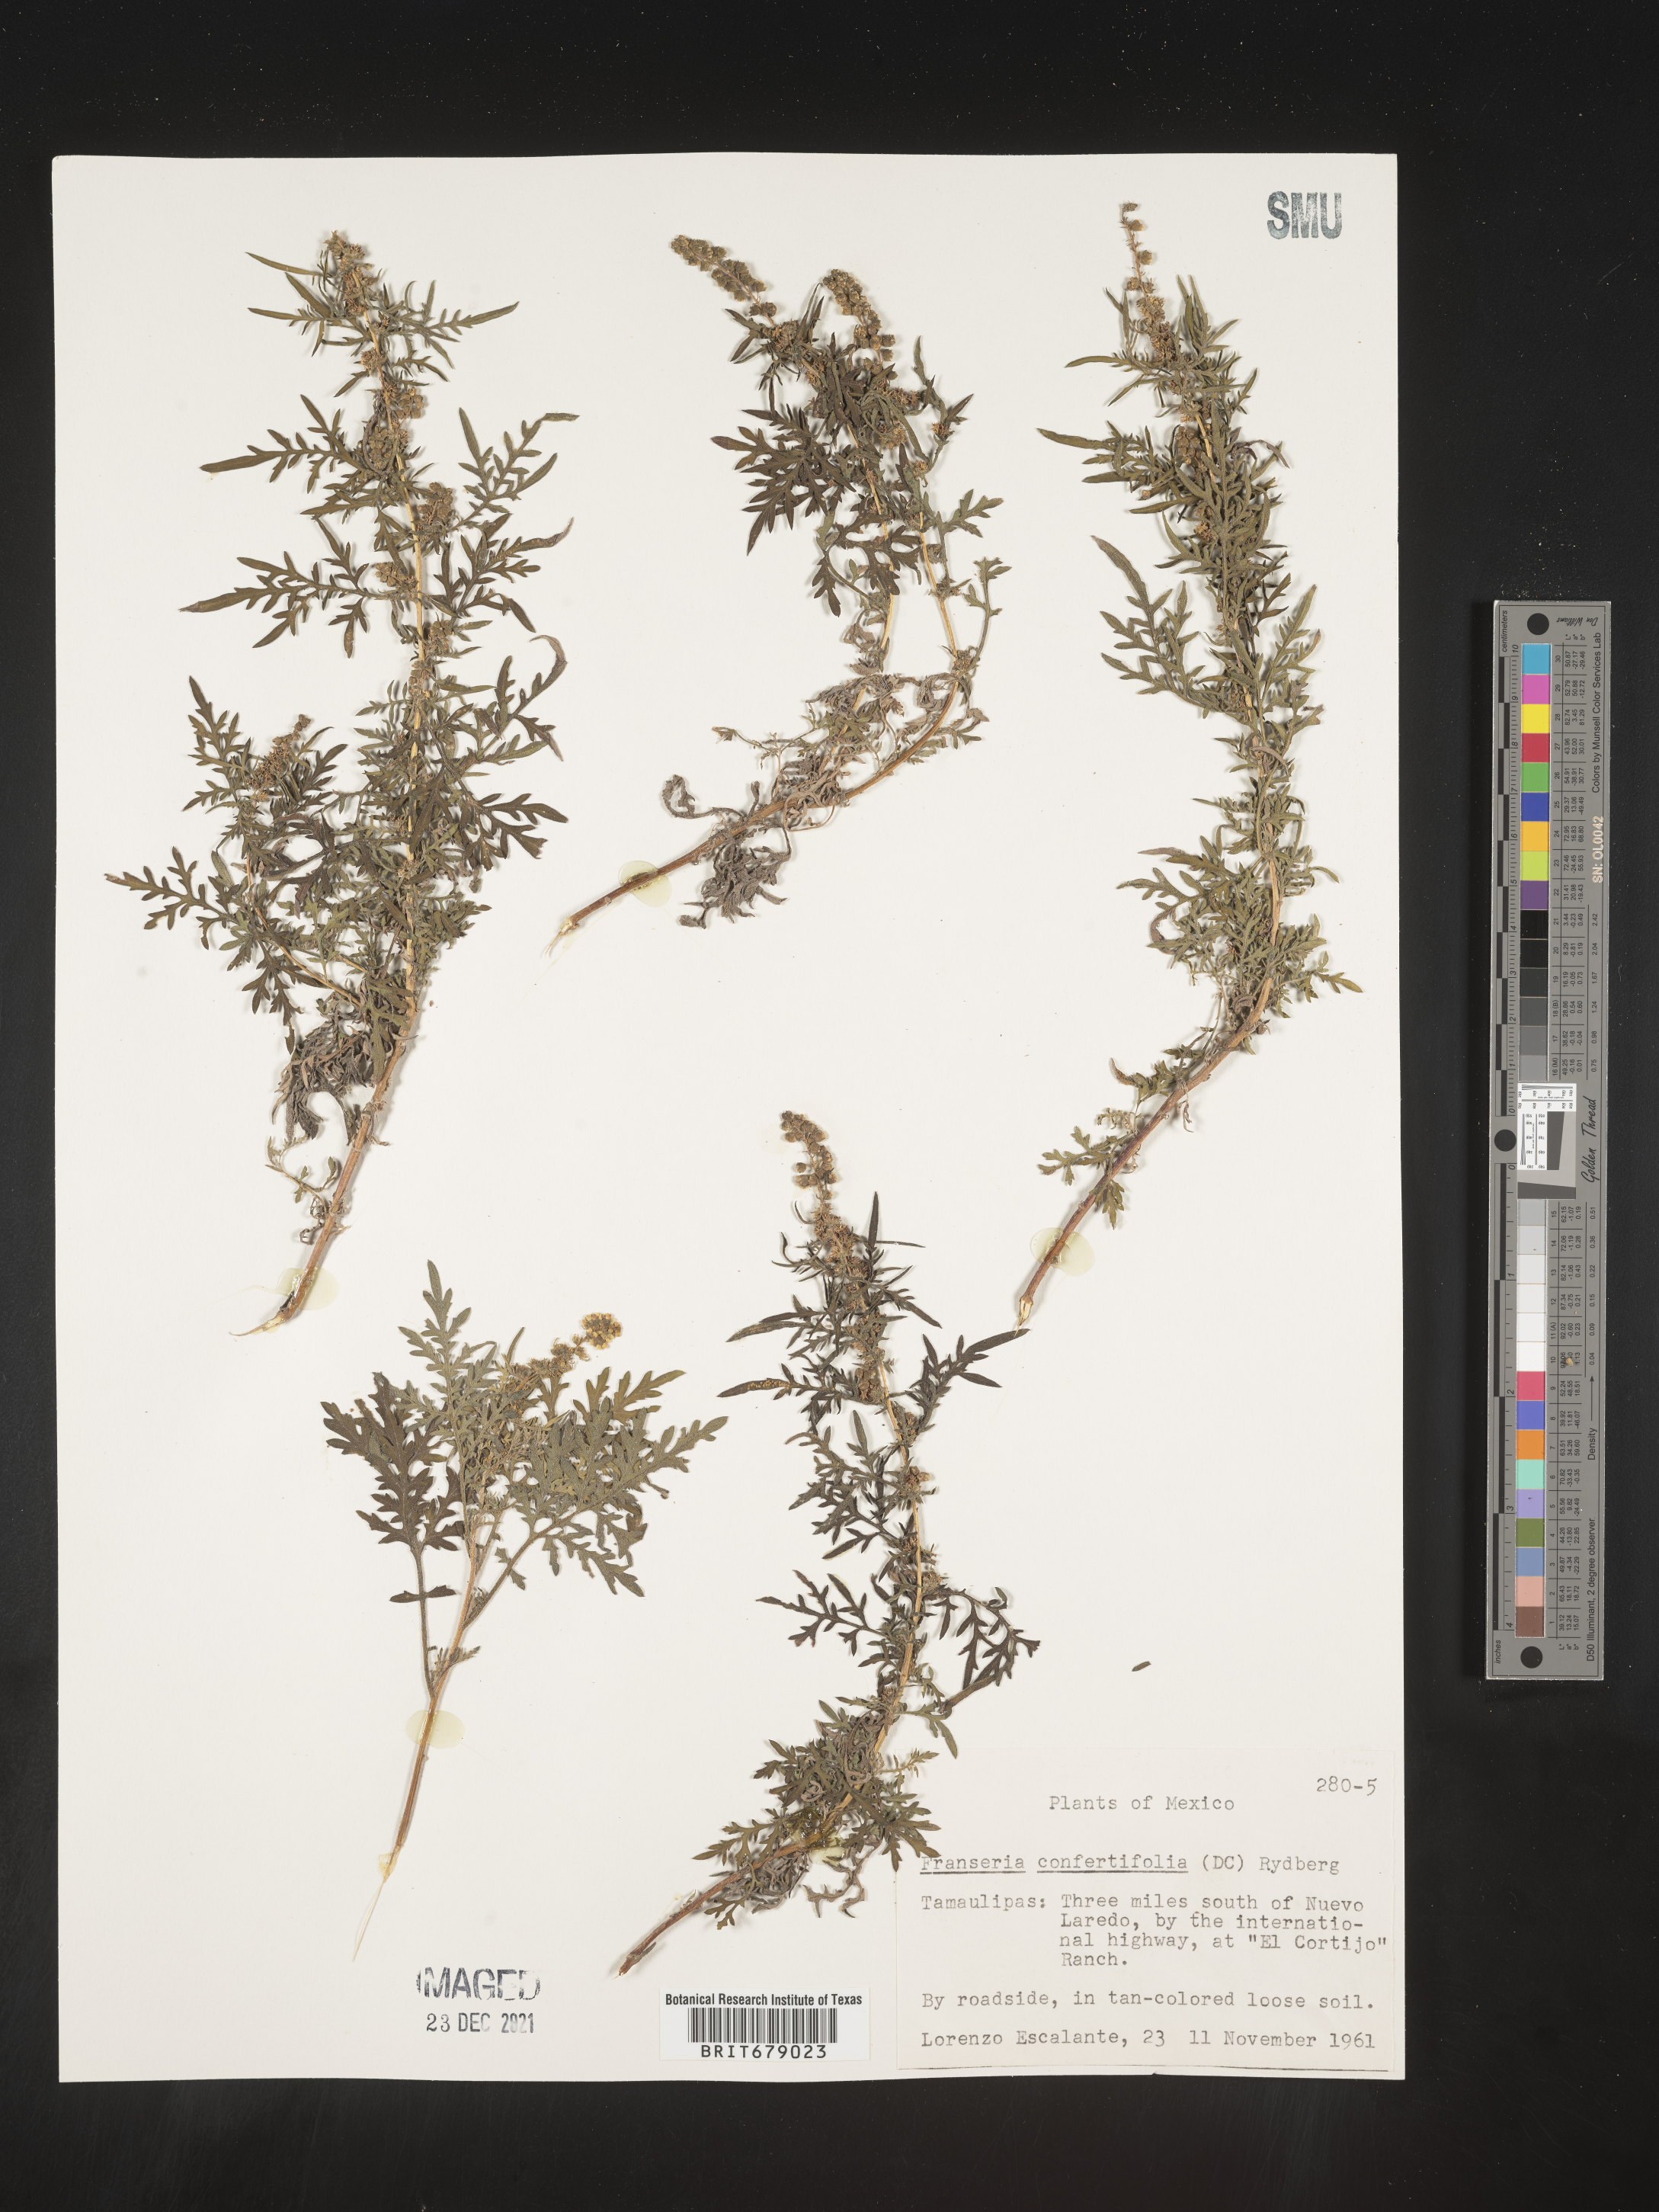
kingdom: Plantae
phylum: Tracheophyta
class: Magnoliopsida
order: Asterales
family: Asteraceae
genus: Ambrosia
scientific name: Ambrosia
